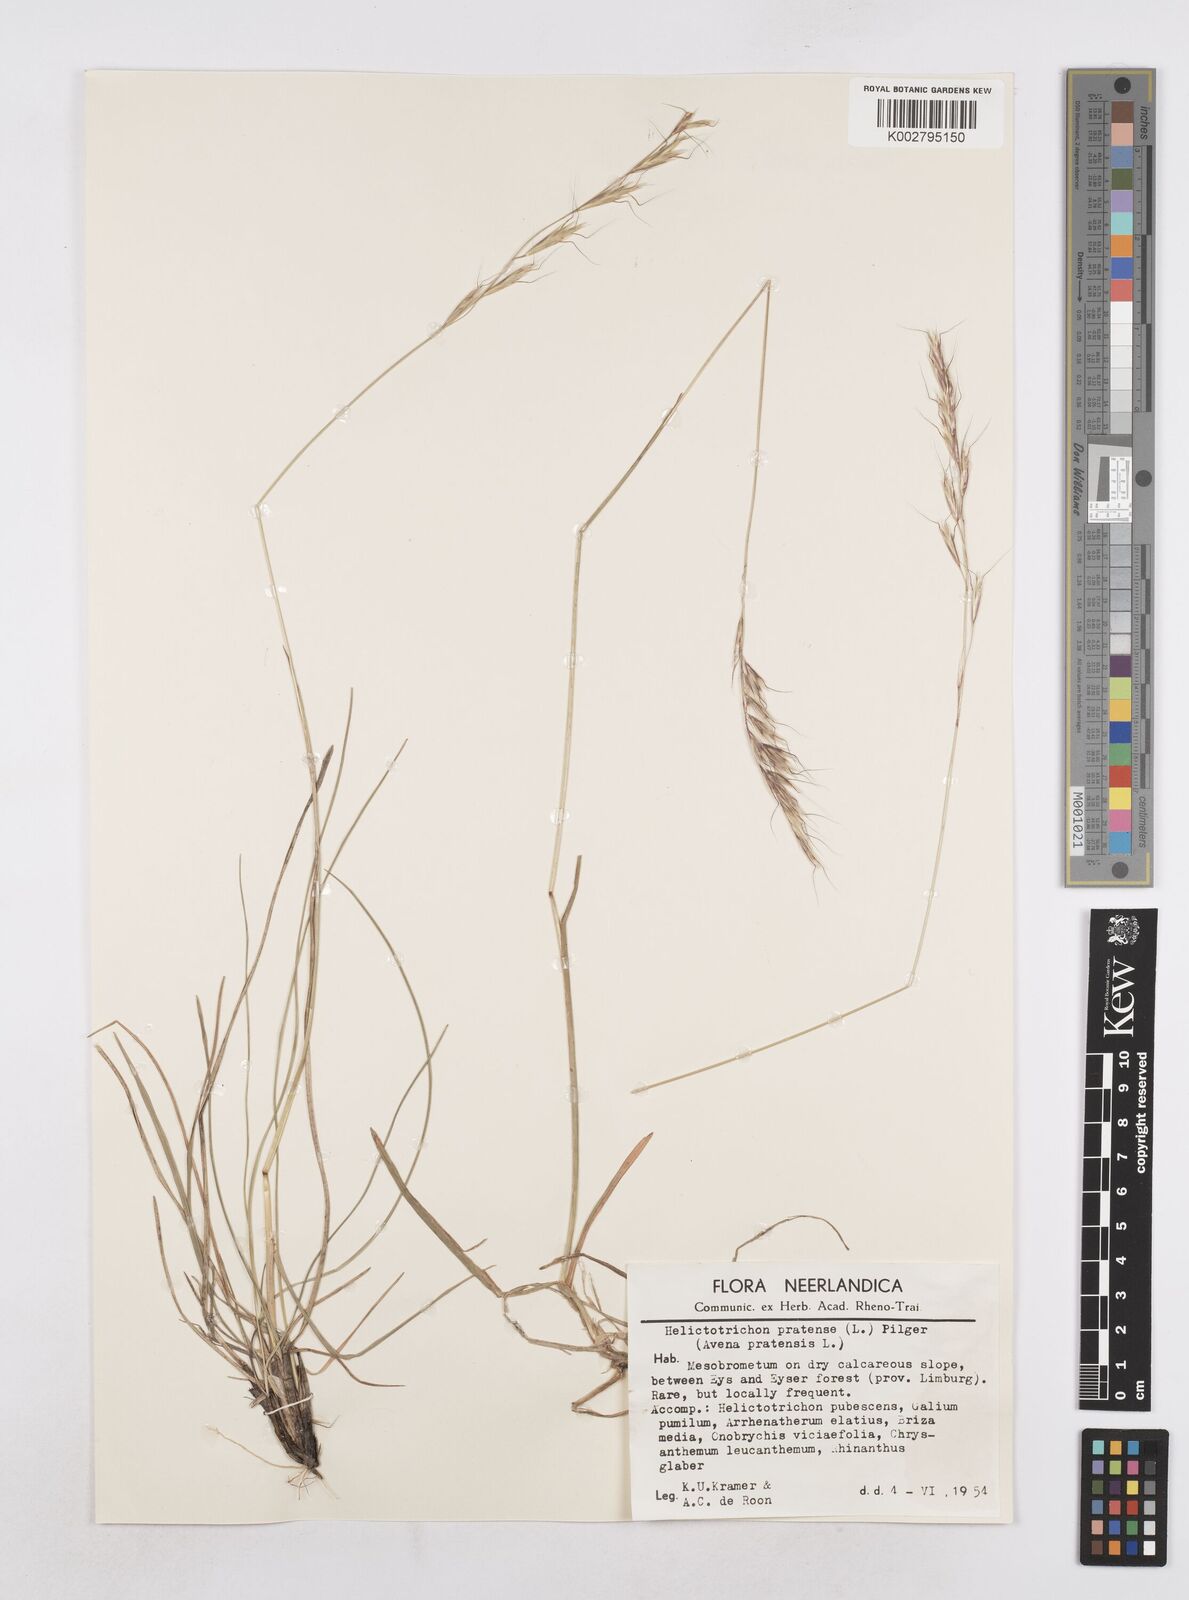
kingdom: Plantae
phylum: Tracheophyta
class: Liliopsida
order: Poales
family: Poaceae
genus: Helictochloa
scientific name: Helictochloa pratensis
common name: Meadow oat grass
